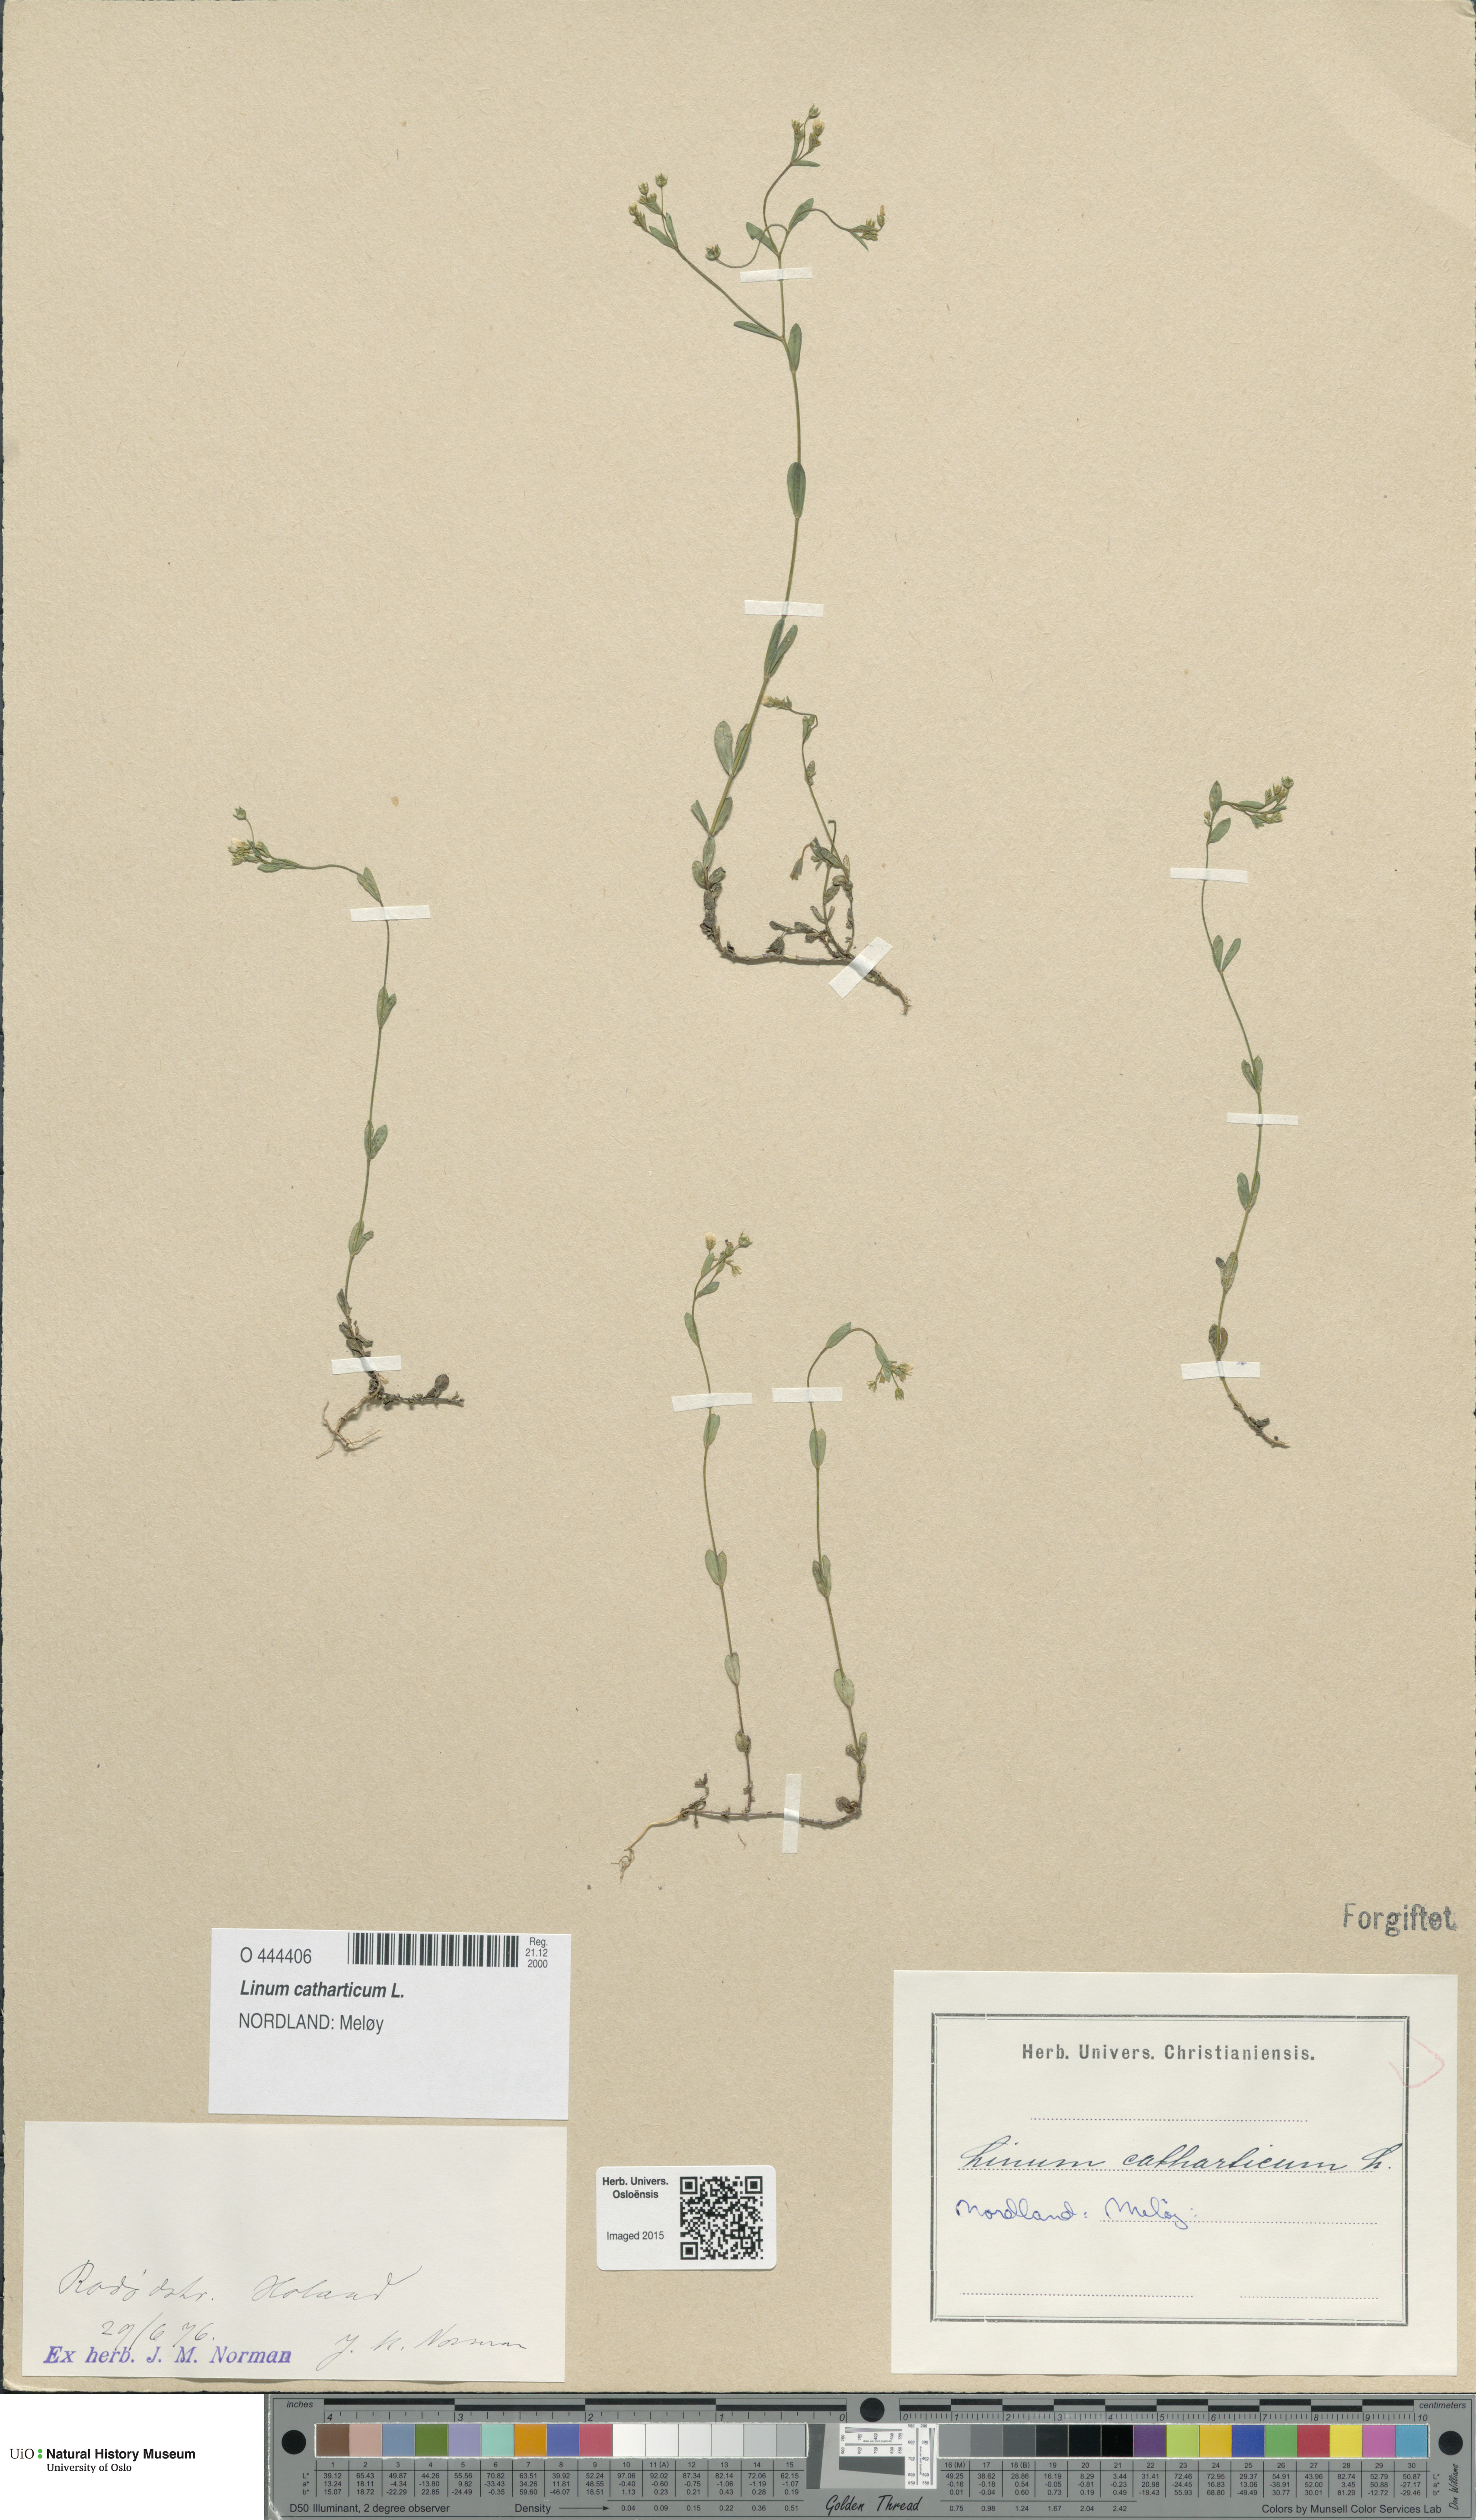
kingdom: Plantae
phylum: Tracheophyta
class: Magnoliopsida
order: Malpighiales
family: Linaceae
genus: Linum
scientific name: Linum catharticum
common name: Fairy flax
